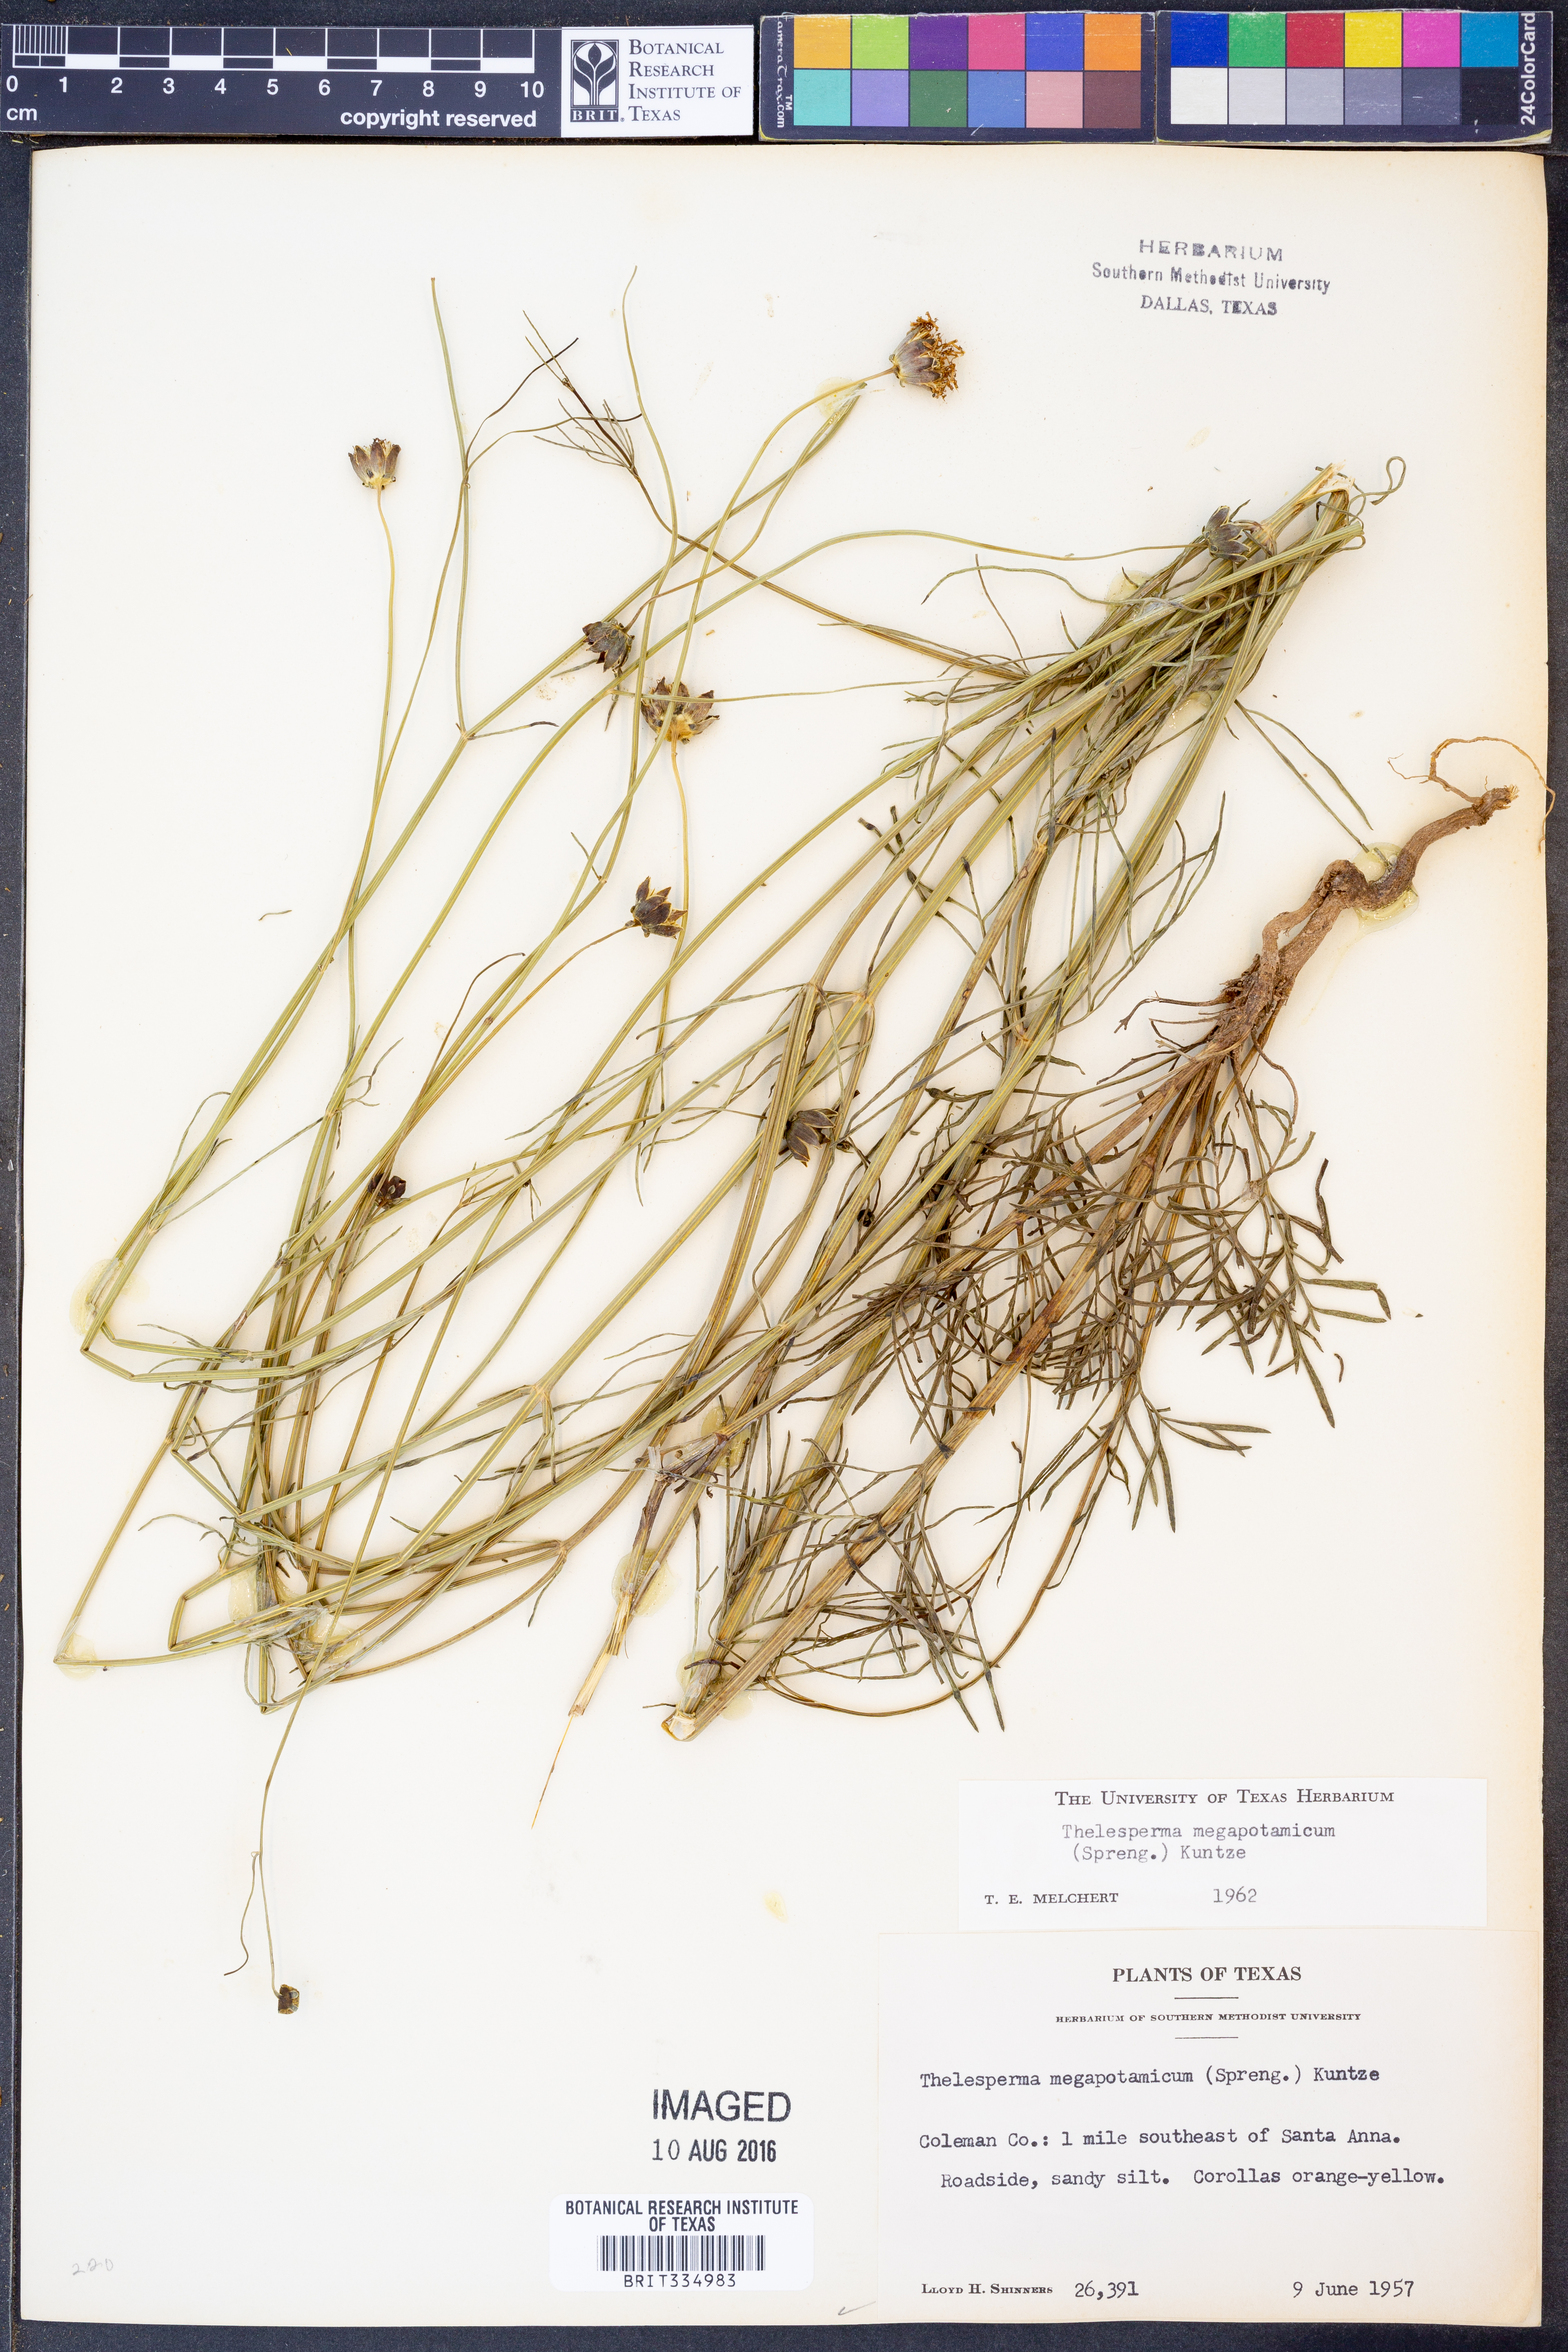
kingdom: Plantae
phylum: Tracheophyta
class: Magnoliopsida
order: Asterales
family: Asteraceae
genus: Thelesperma
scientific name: Thelesperma megapotamicum
